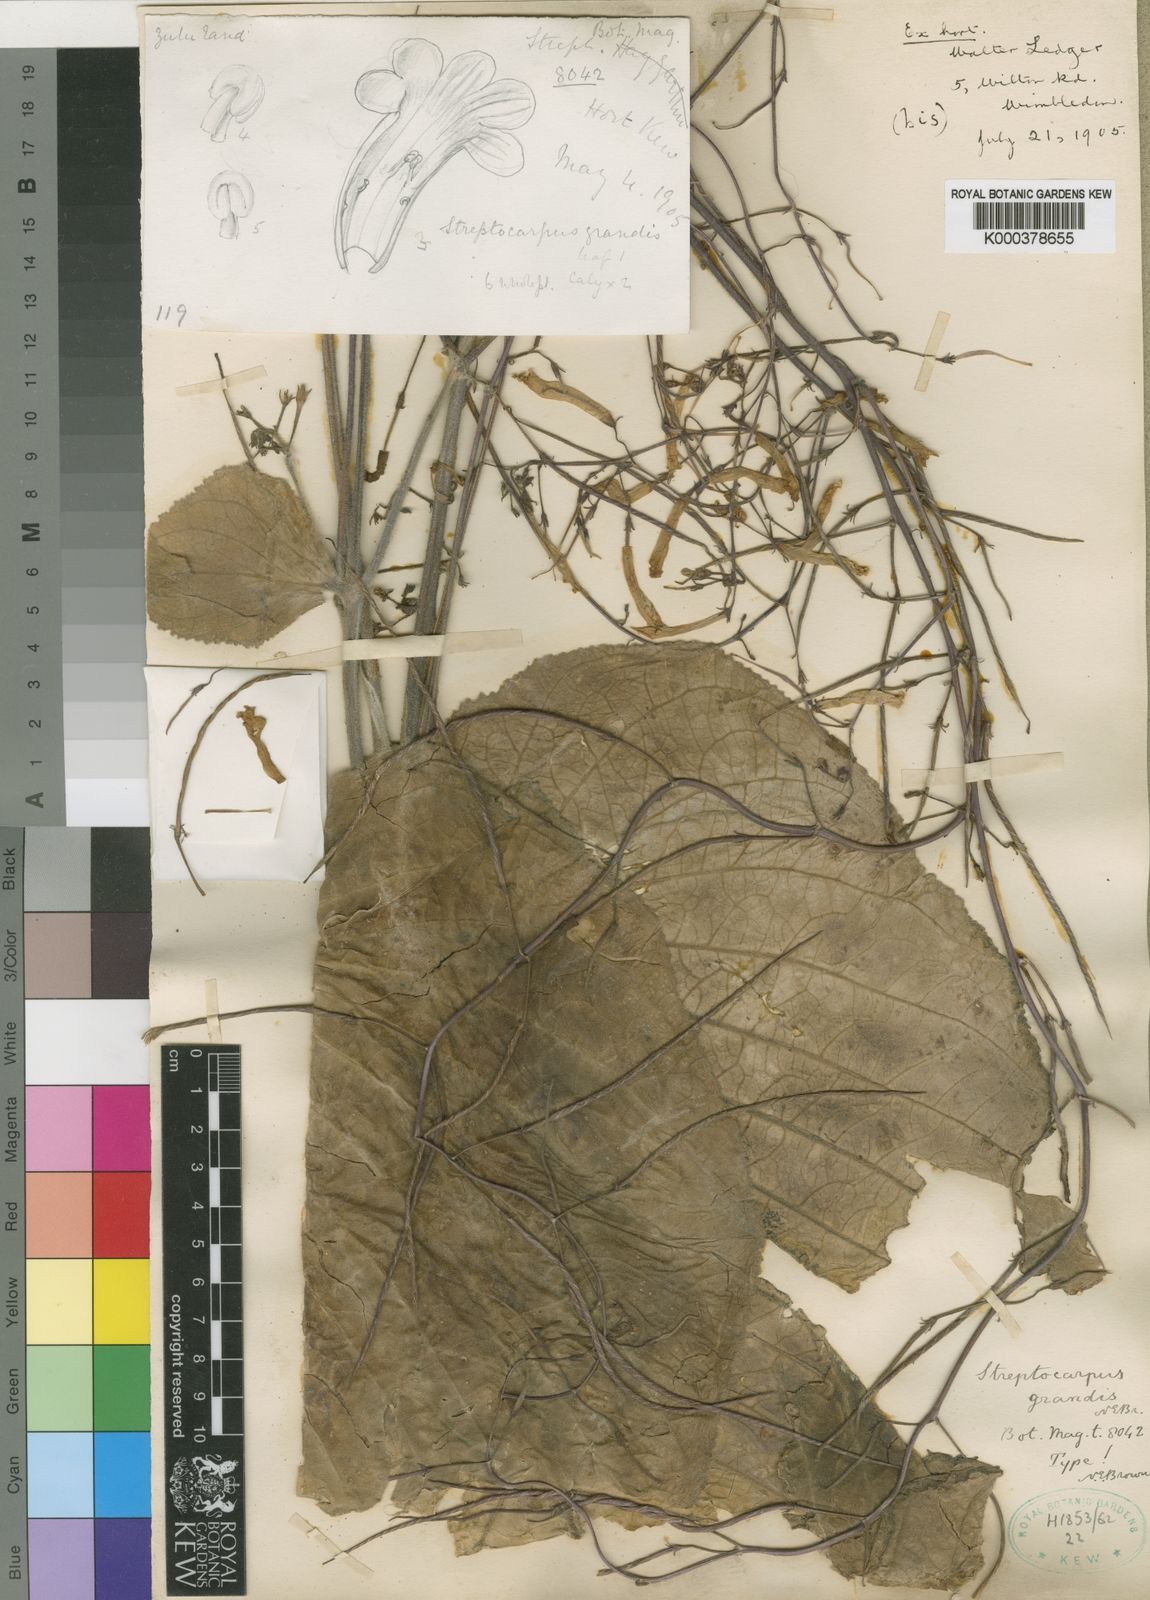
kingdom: Plantae
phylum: Tracheophyta
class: Magnoliopsida
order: Lamiales
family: Gesneriaceae
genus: Streptocarpus
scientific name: Streptocarpus grandis
